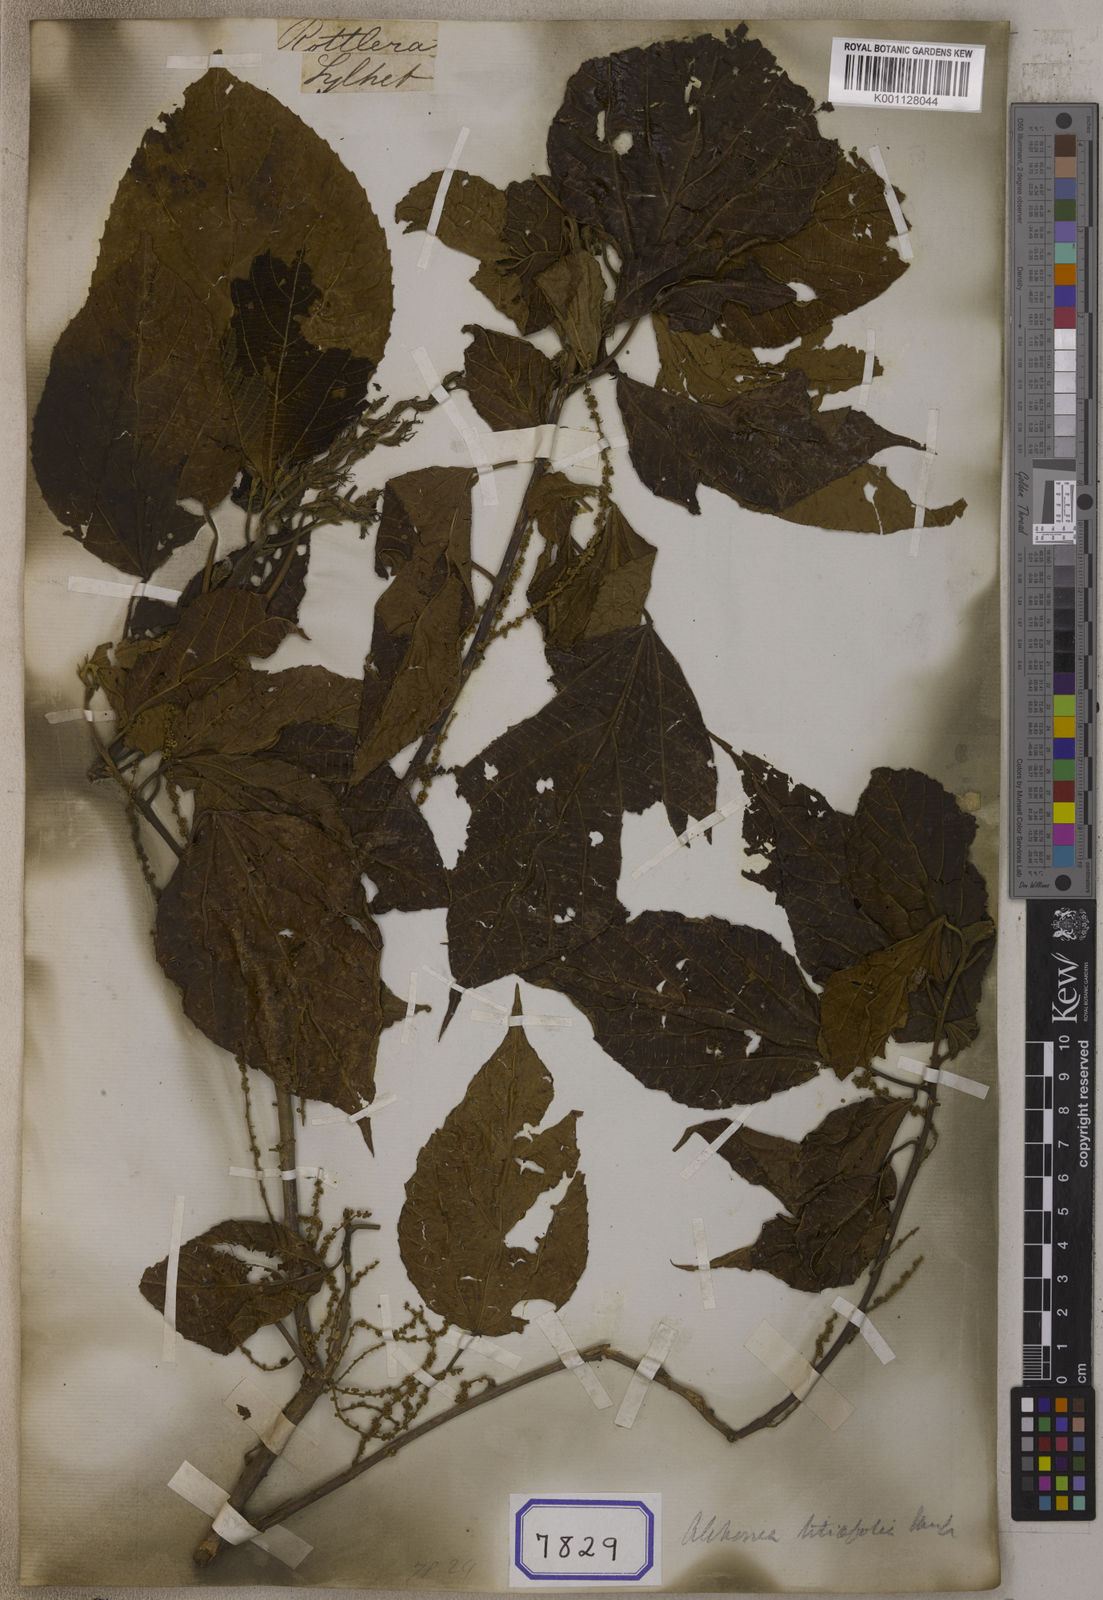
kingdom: Plantae
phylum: Tracheophyta
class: Magnoliopsida
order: Malpighiales
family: Euphorbiaceae
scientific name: Euphorbiaceae
